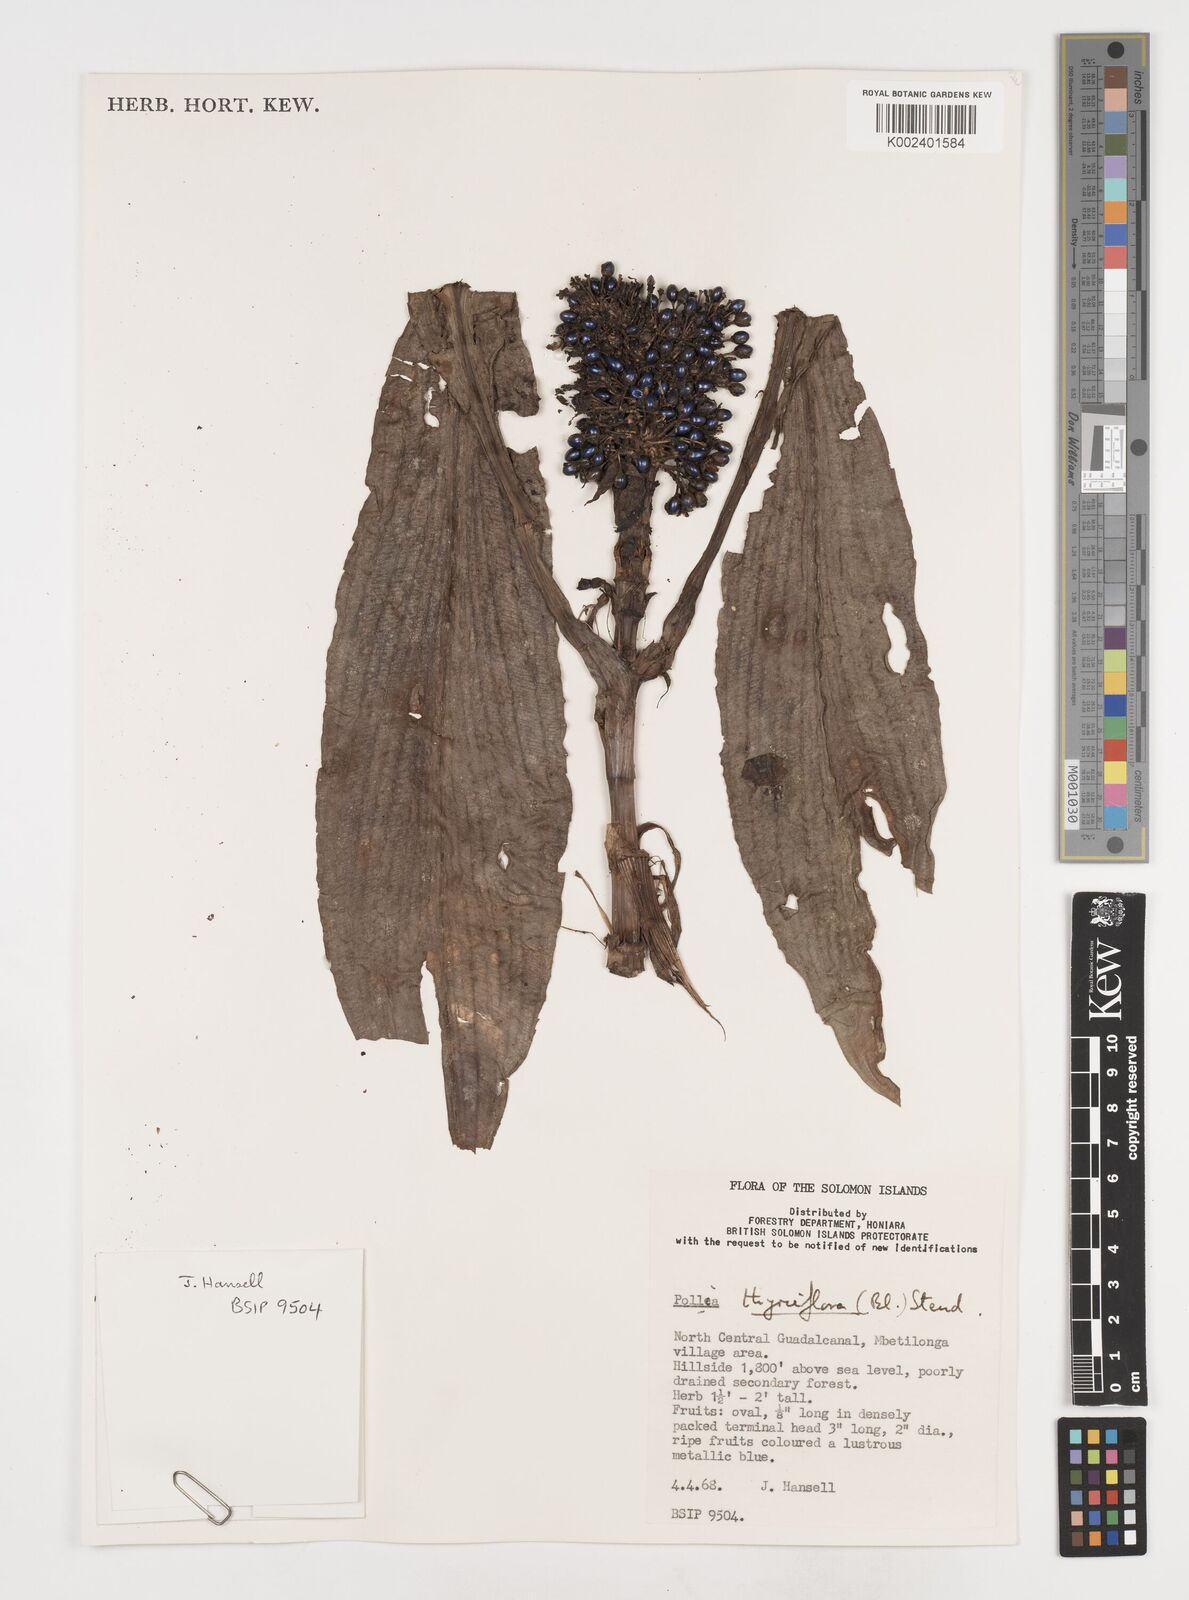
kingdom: Plantae
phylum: Tracheophyta
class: Liliopsida
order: Commelinales
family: Commelinaceae
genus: Pollia
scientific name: Pollia thyrsiflora
